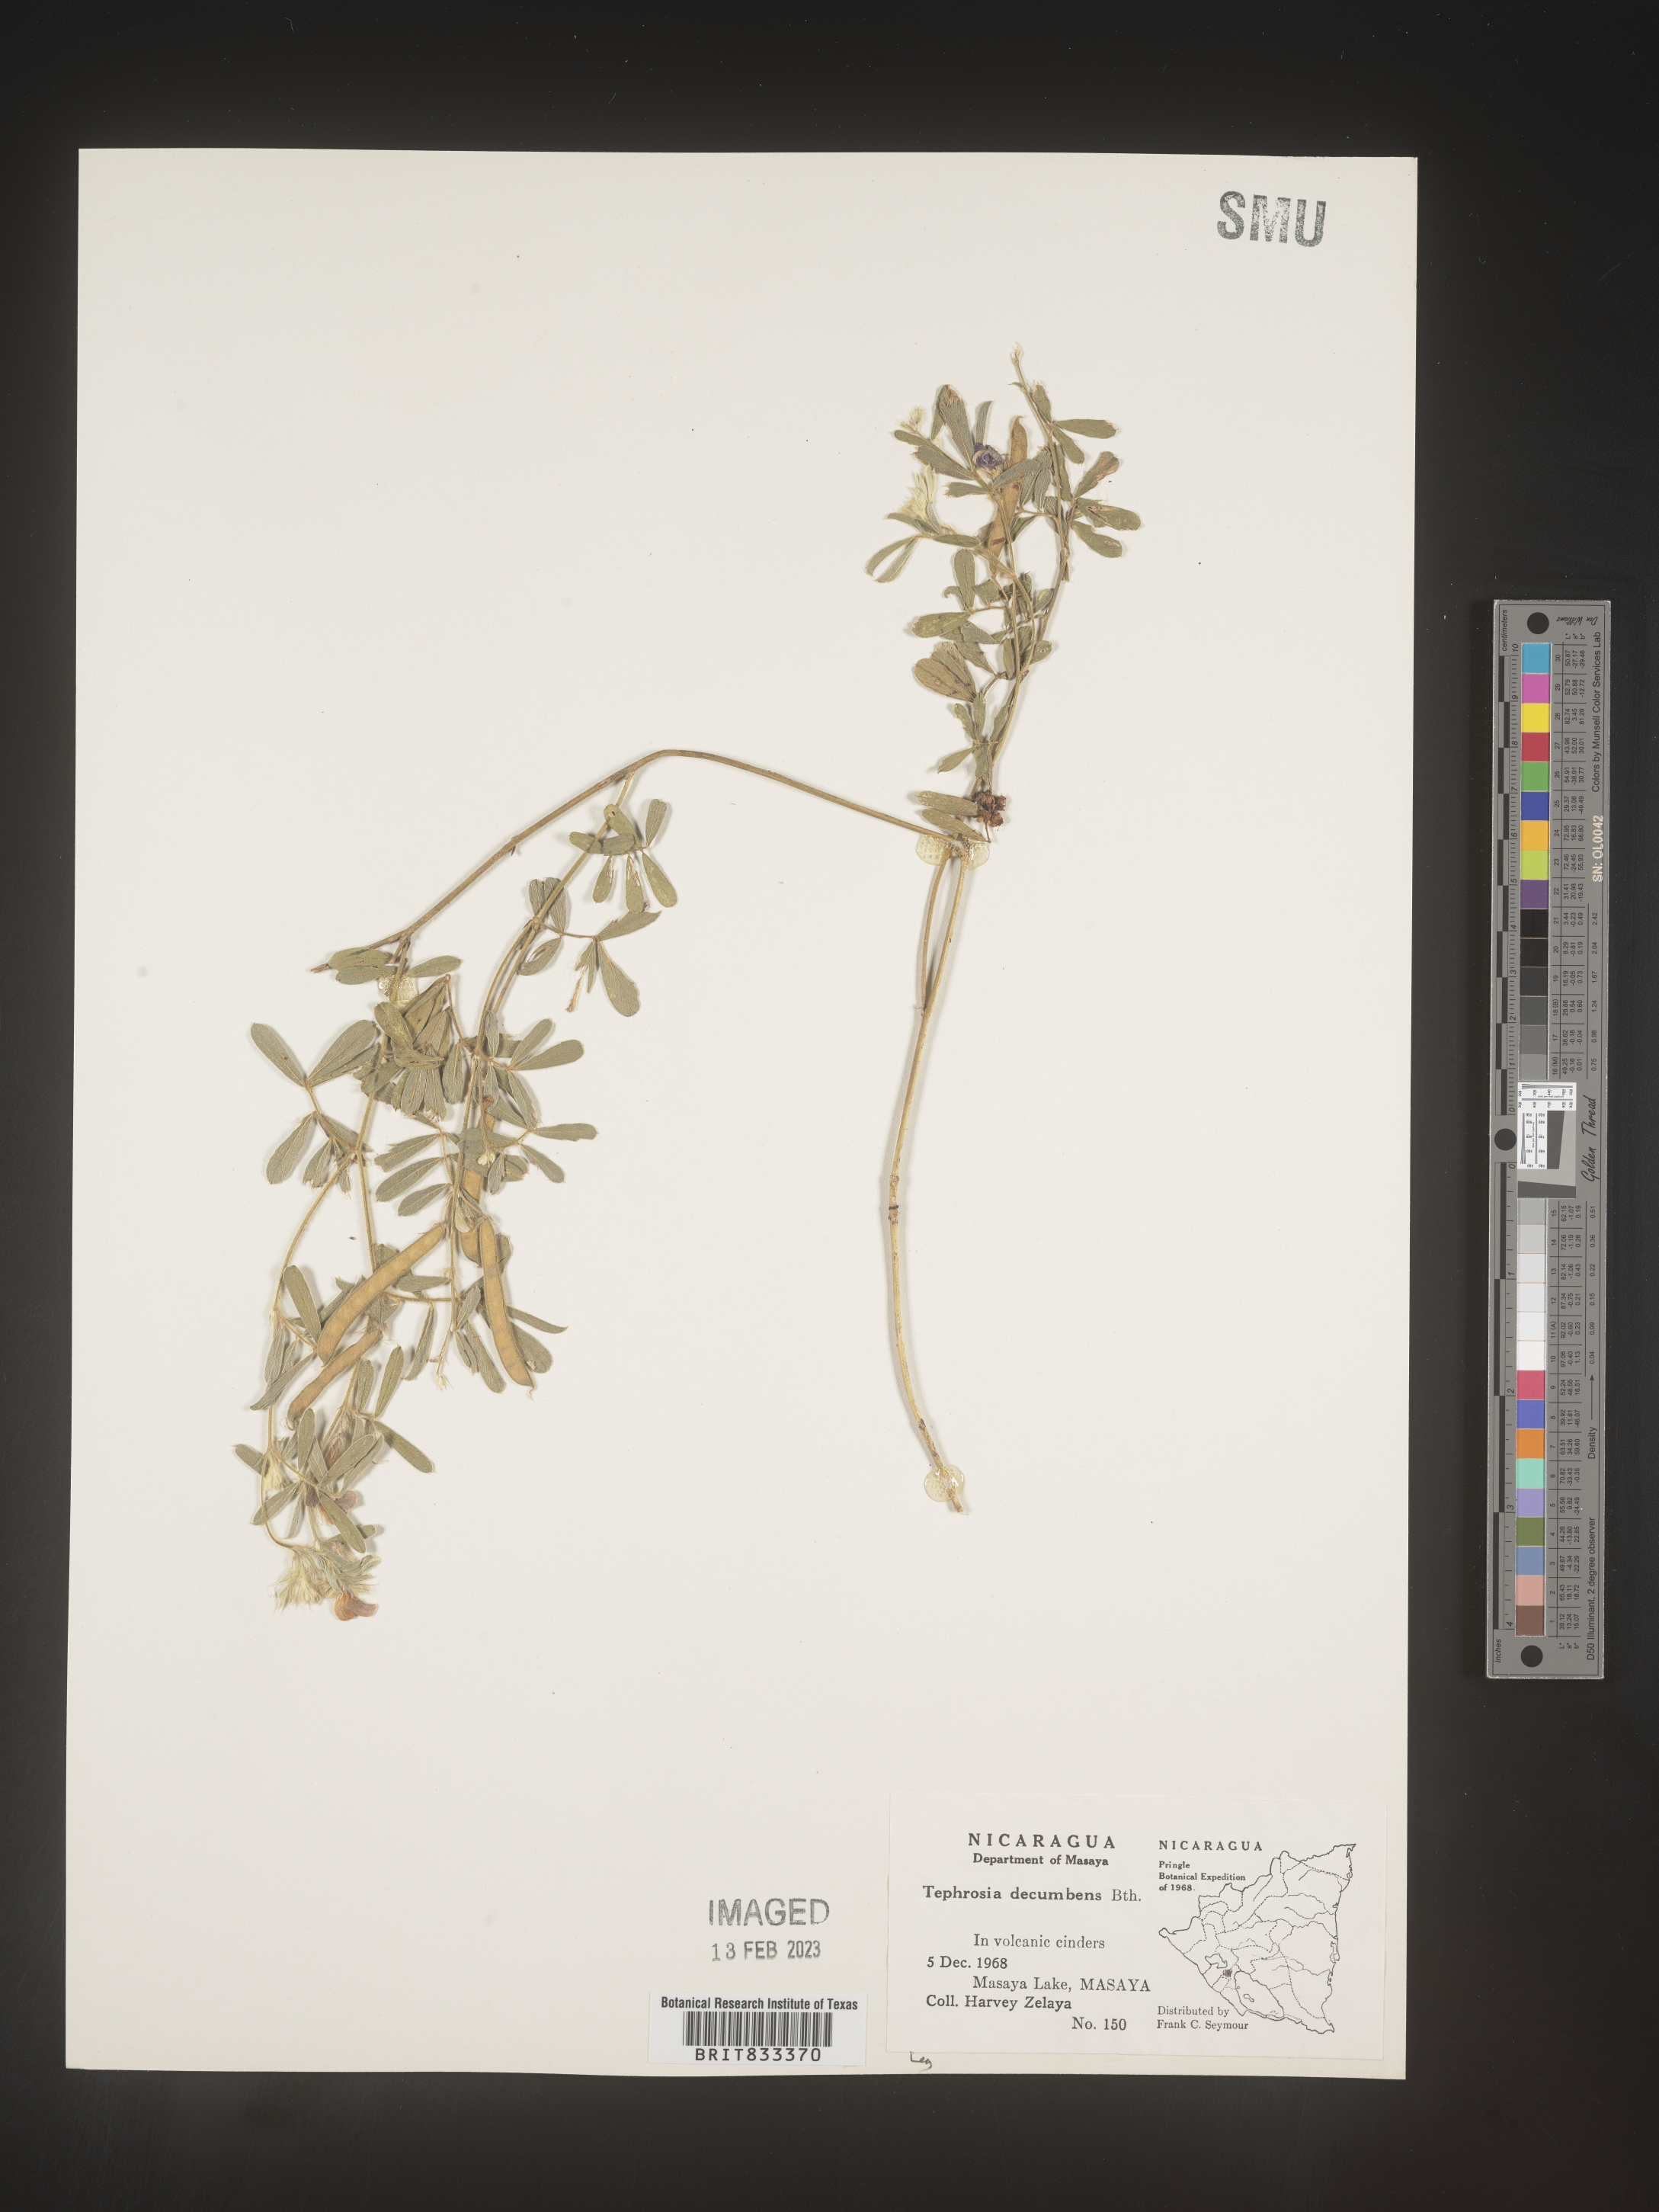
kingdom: Plantae
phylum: Tracheophyta
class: Magnoliopsida
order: Fabales
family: Fabaceae
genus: Tephrosia
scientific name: Tephrosia
